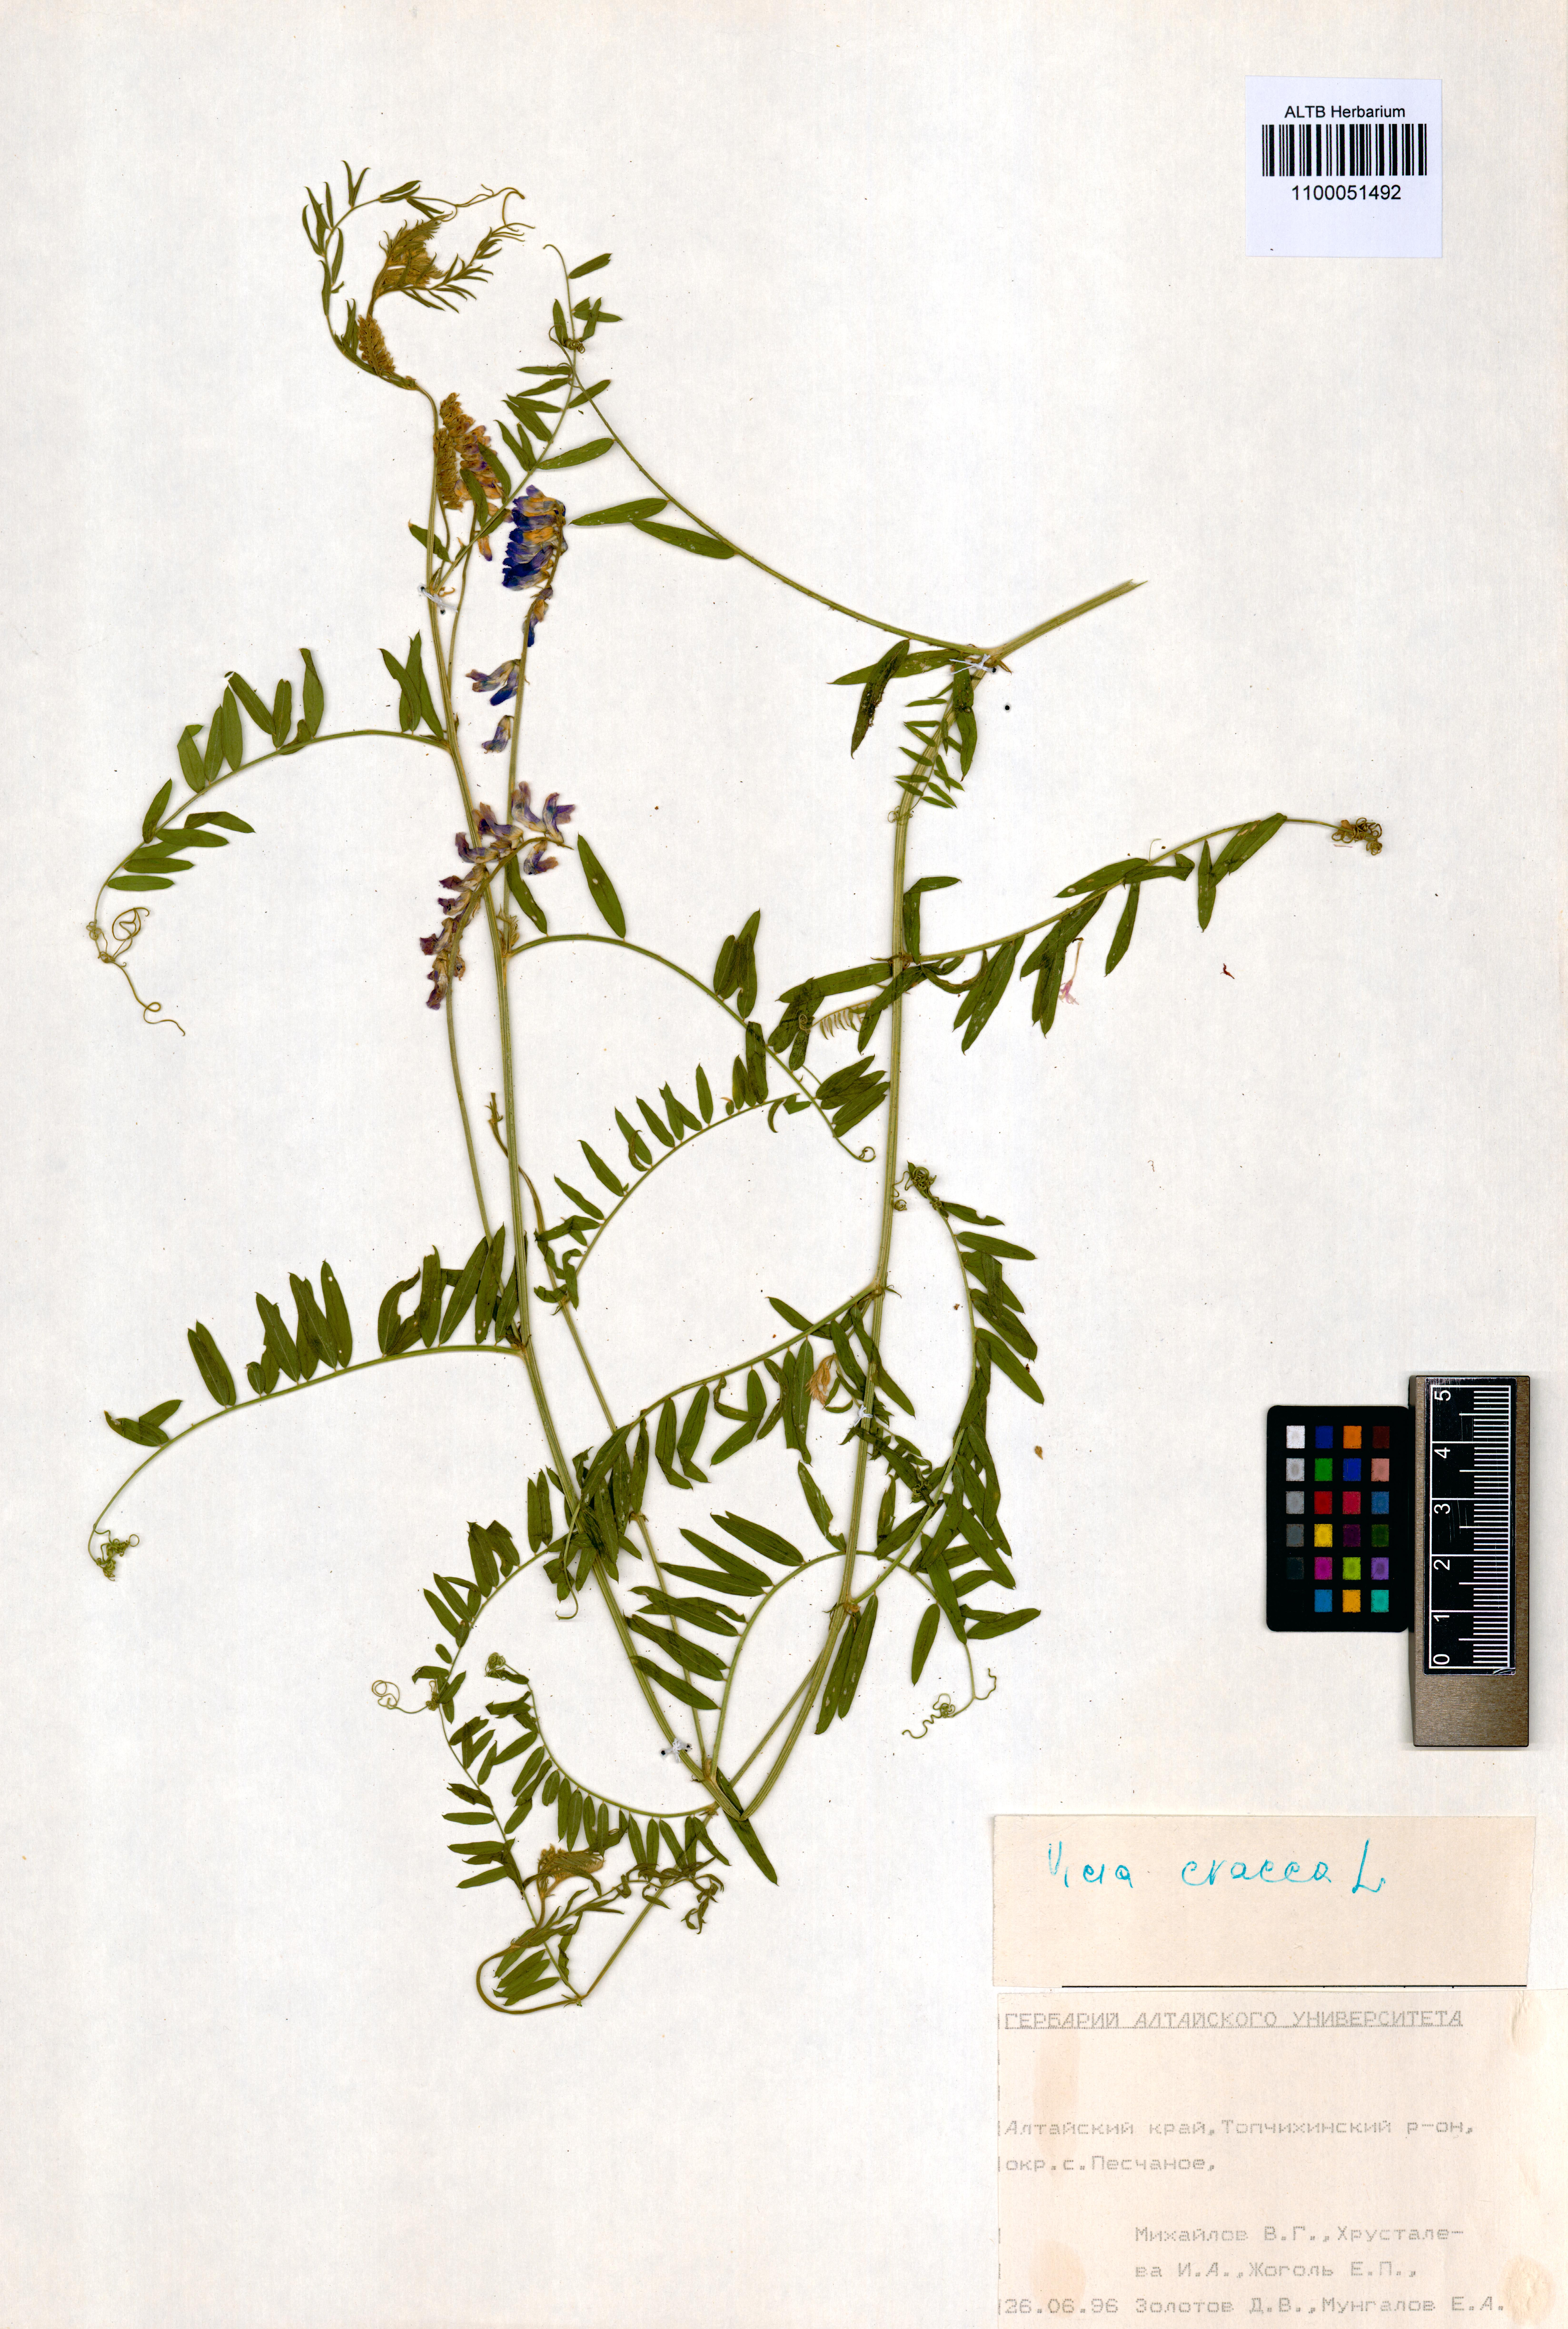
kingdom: Plantae
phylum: Tracheophyta
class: Magnoliopsida
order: Fabales
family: Fabaceae
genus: Vicia
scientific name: Vicia cracca
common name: Bird vetch
